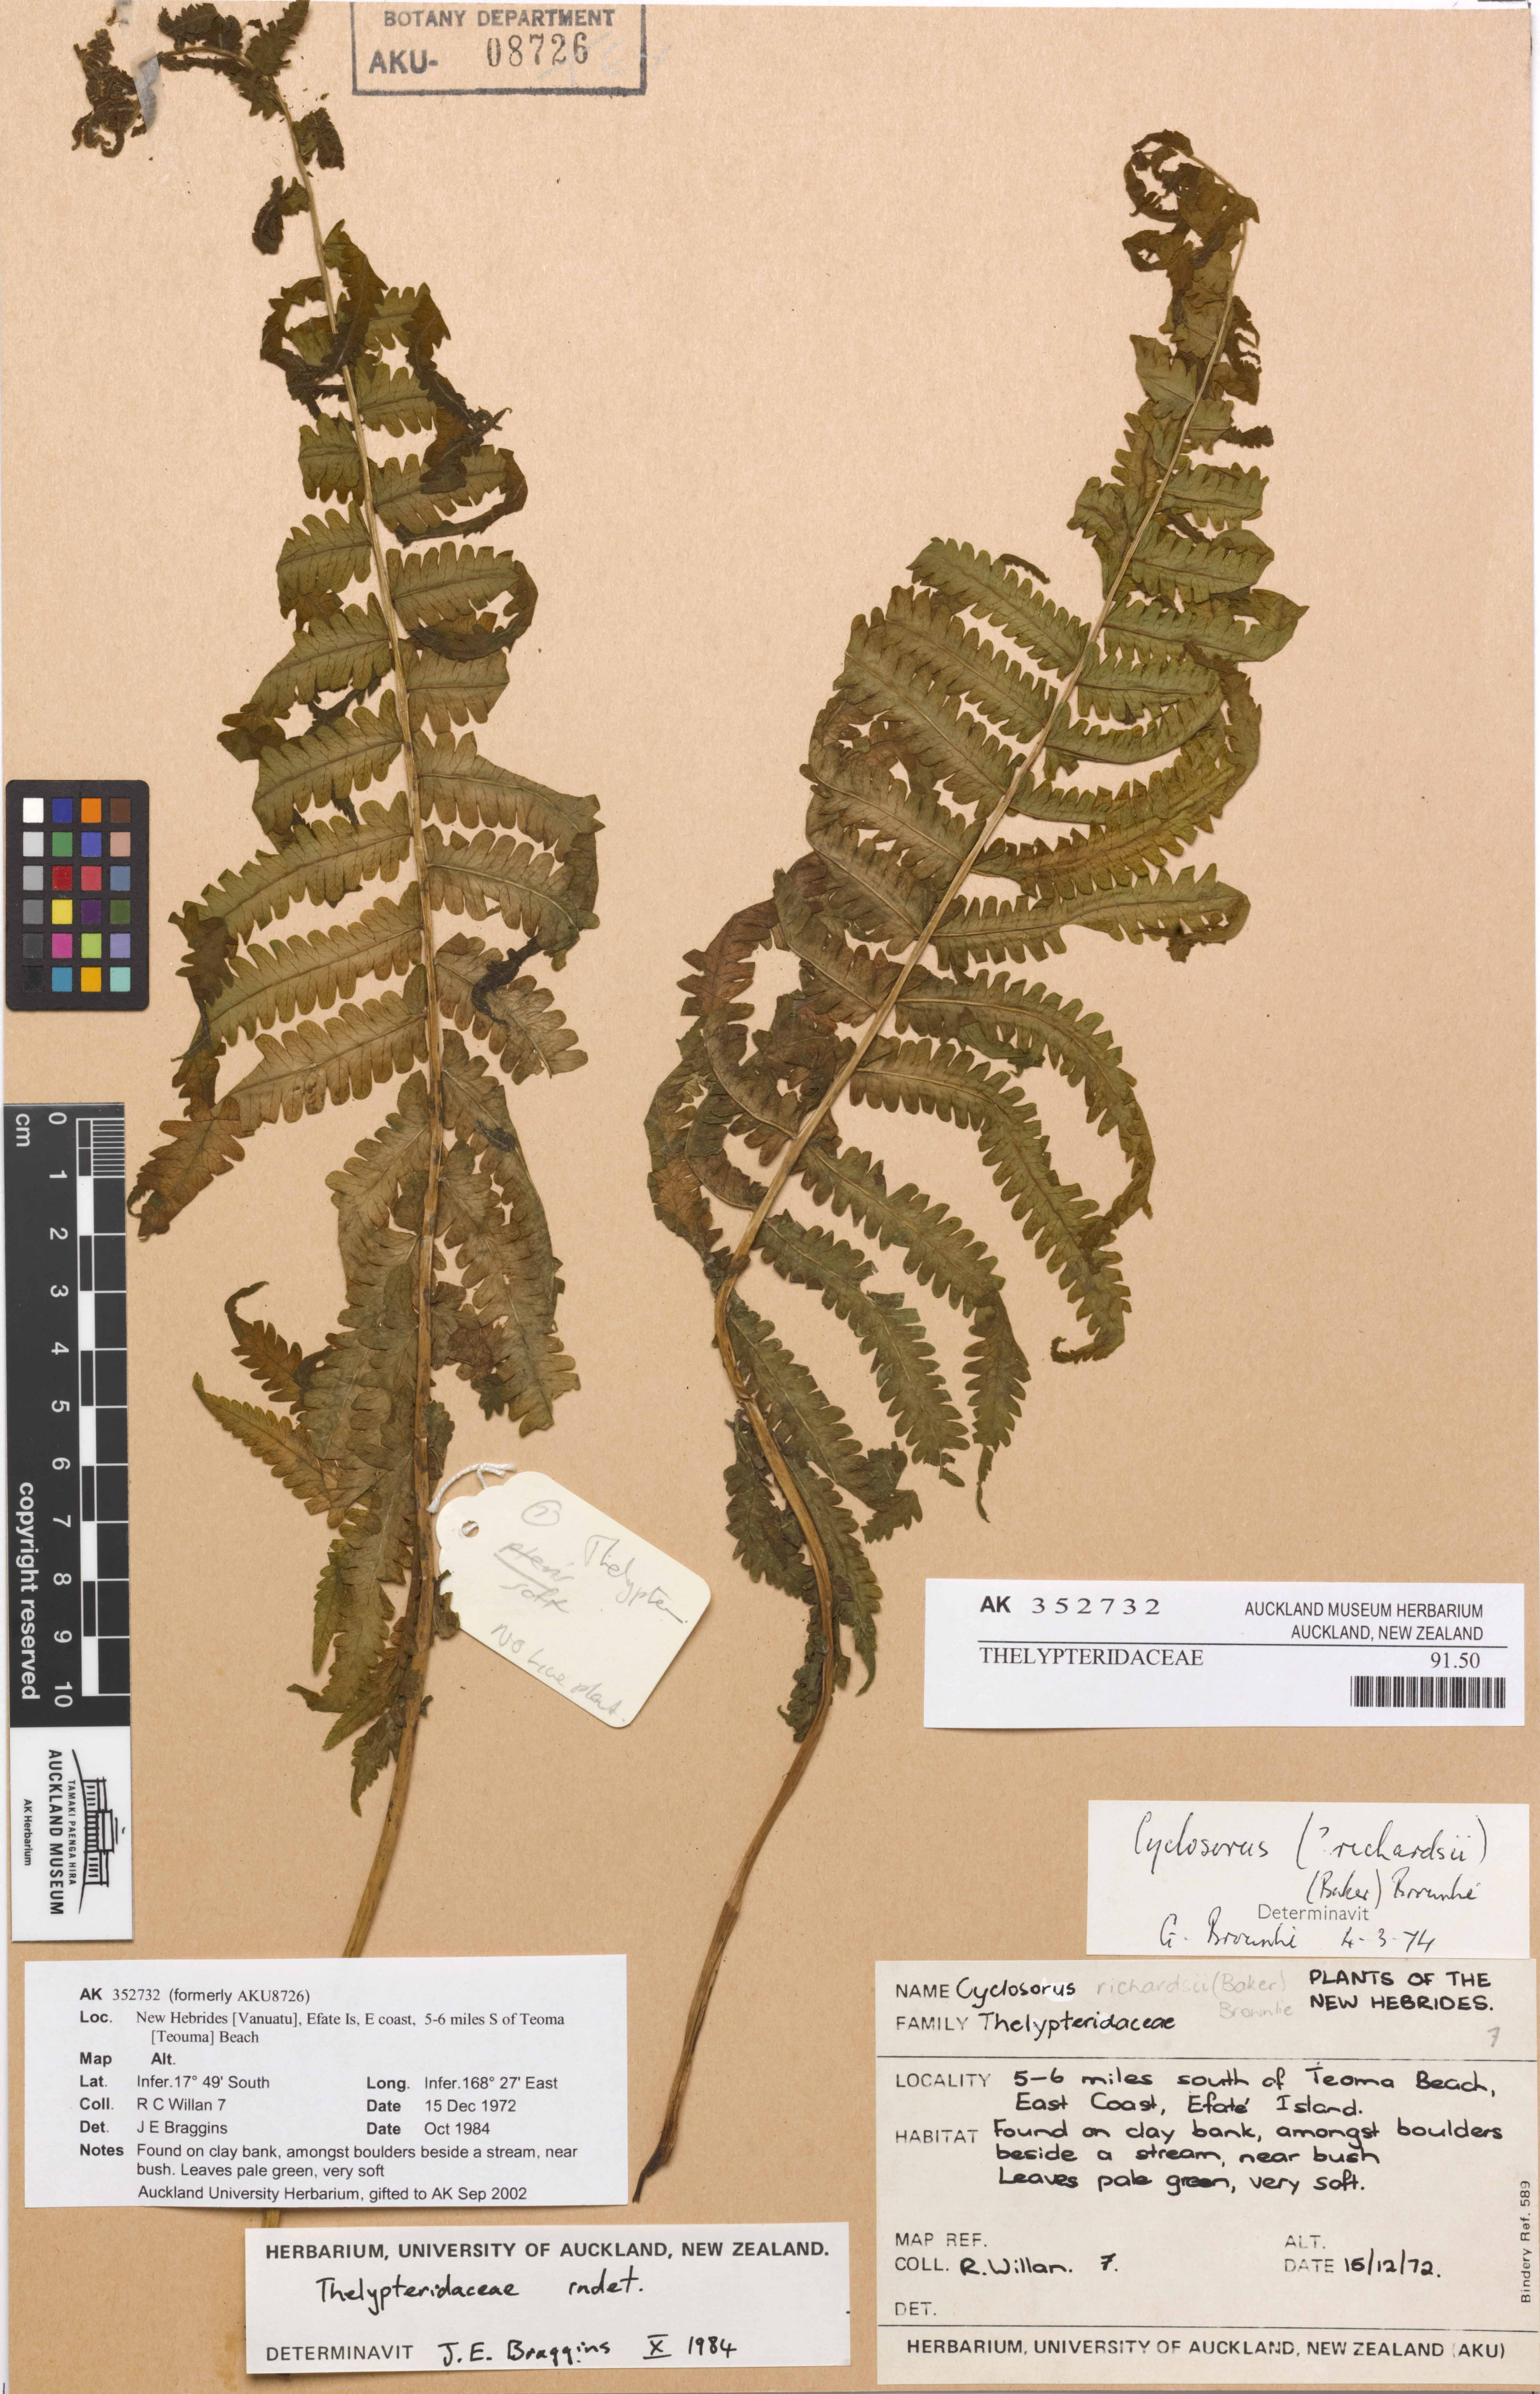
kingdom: Plantae
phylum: Tracheophyta
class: Polypodiopsida
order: Polypodiales
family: Thelypteridaceae
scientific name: Thelypteridaceae
